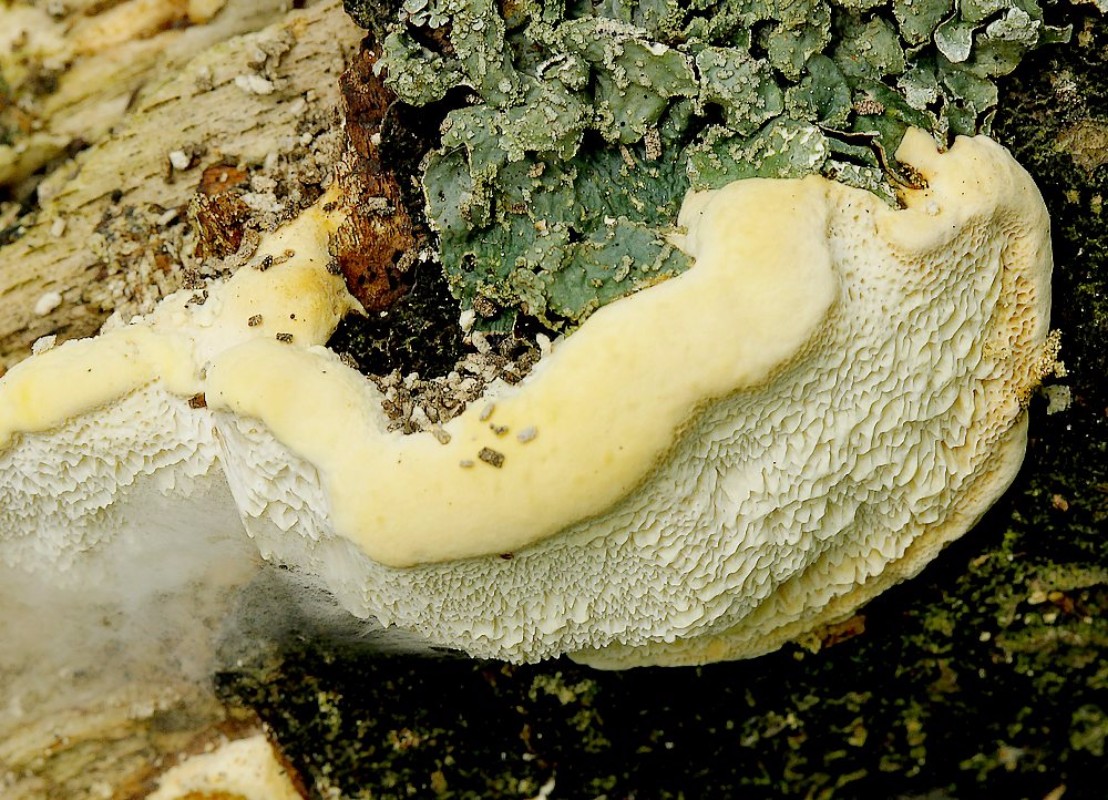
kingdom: Fungi
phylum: Basidiomycota
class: Agaricomycetes
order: Polyporales
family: Steccherinaceae
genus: Antrodiella
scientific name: Antrodiella serpula
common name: gulrandet elastikporesvamp
